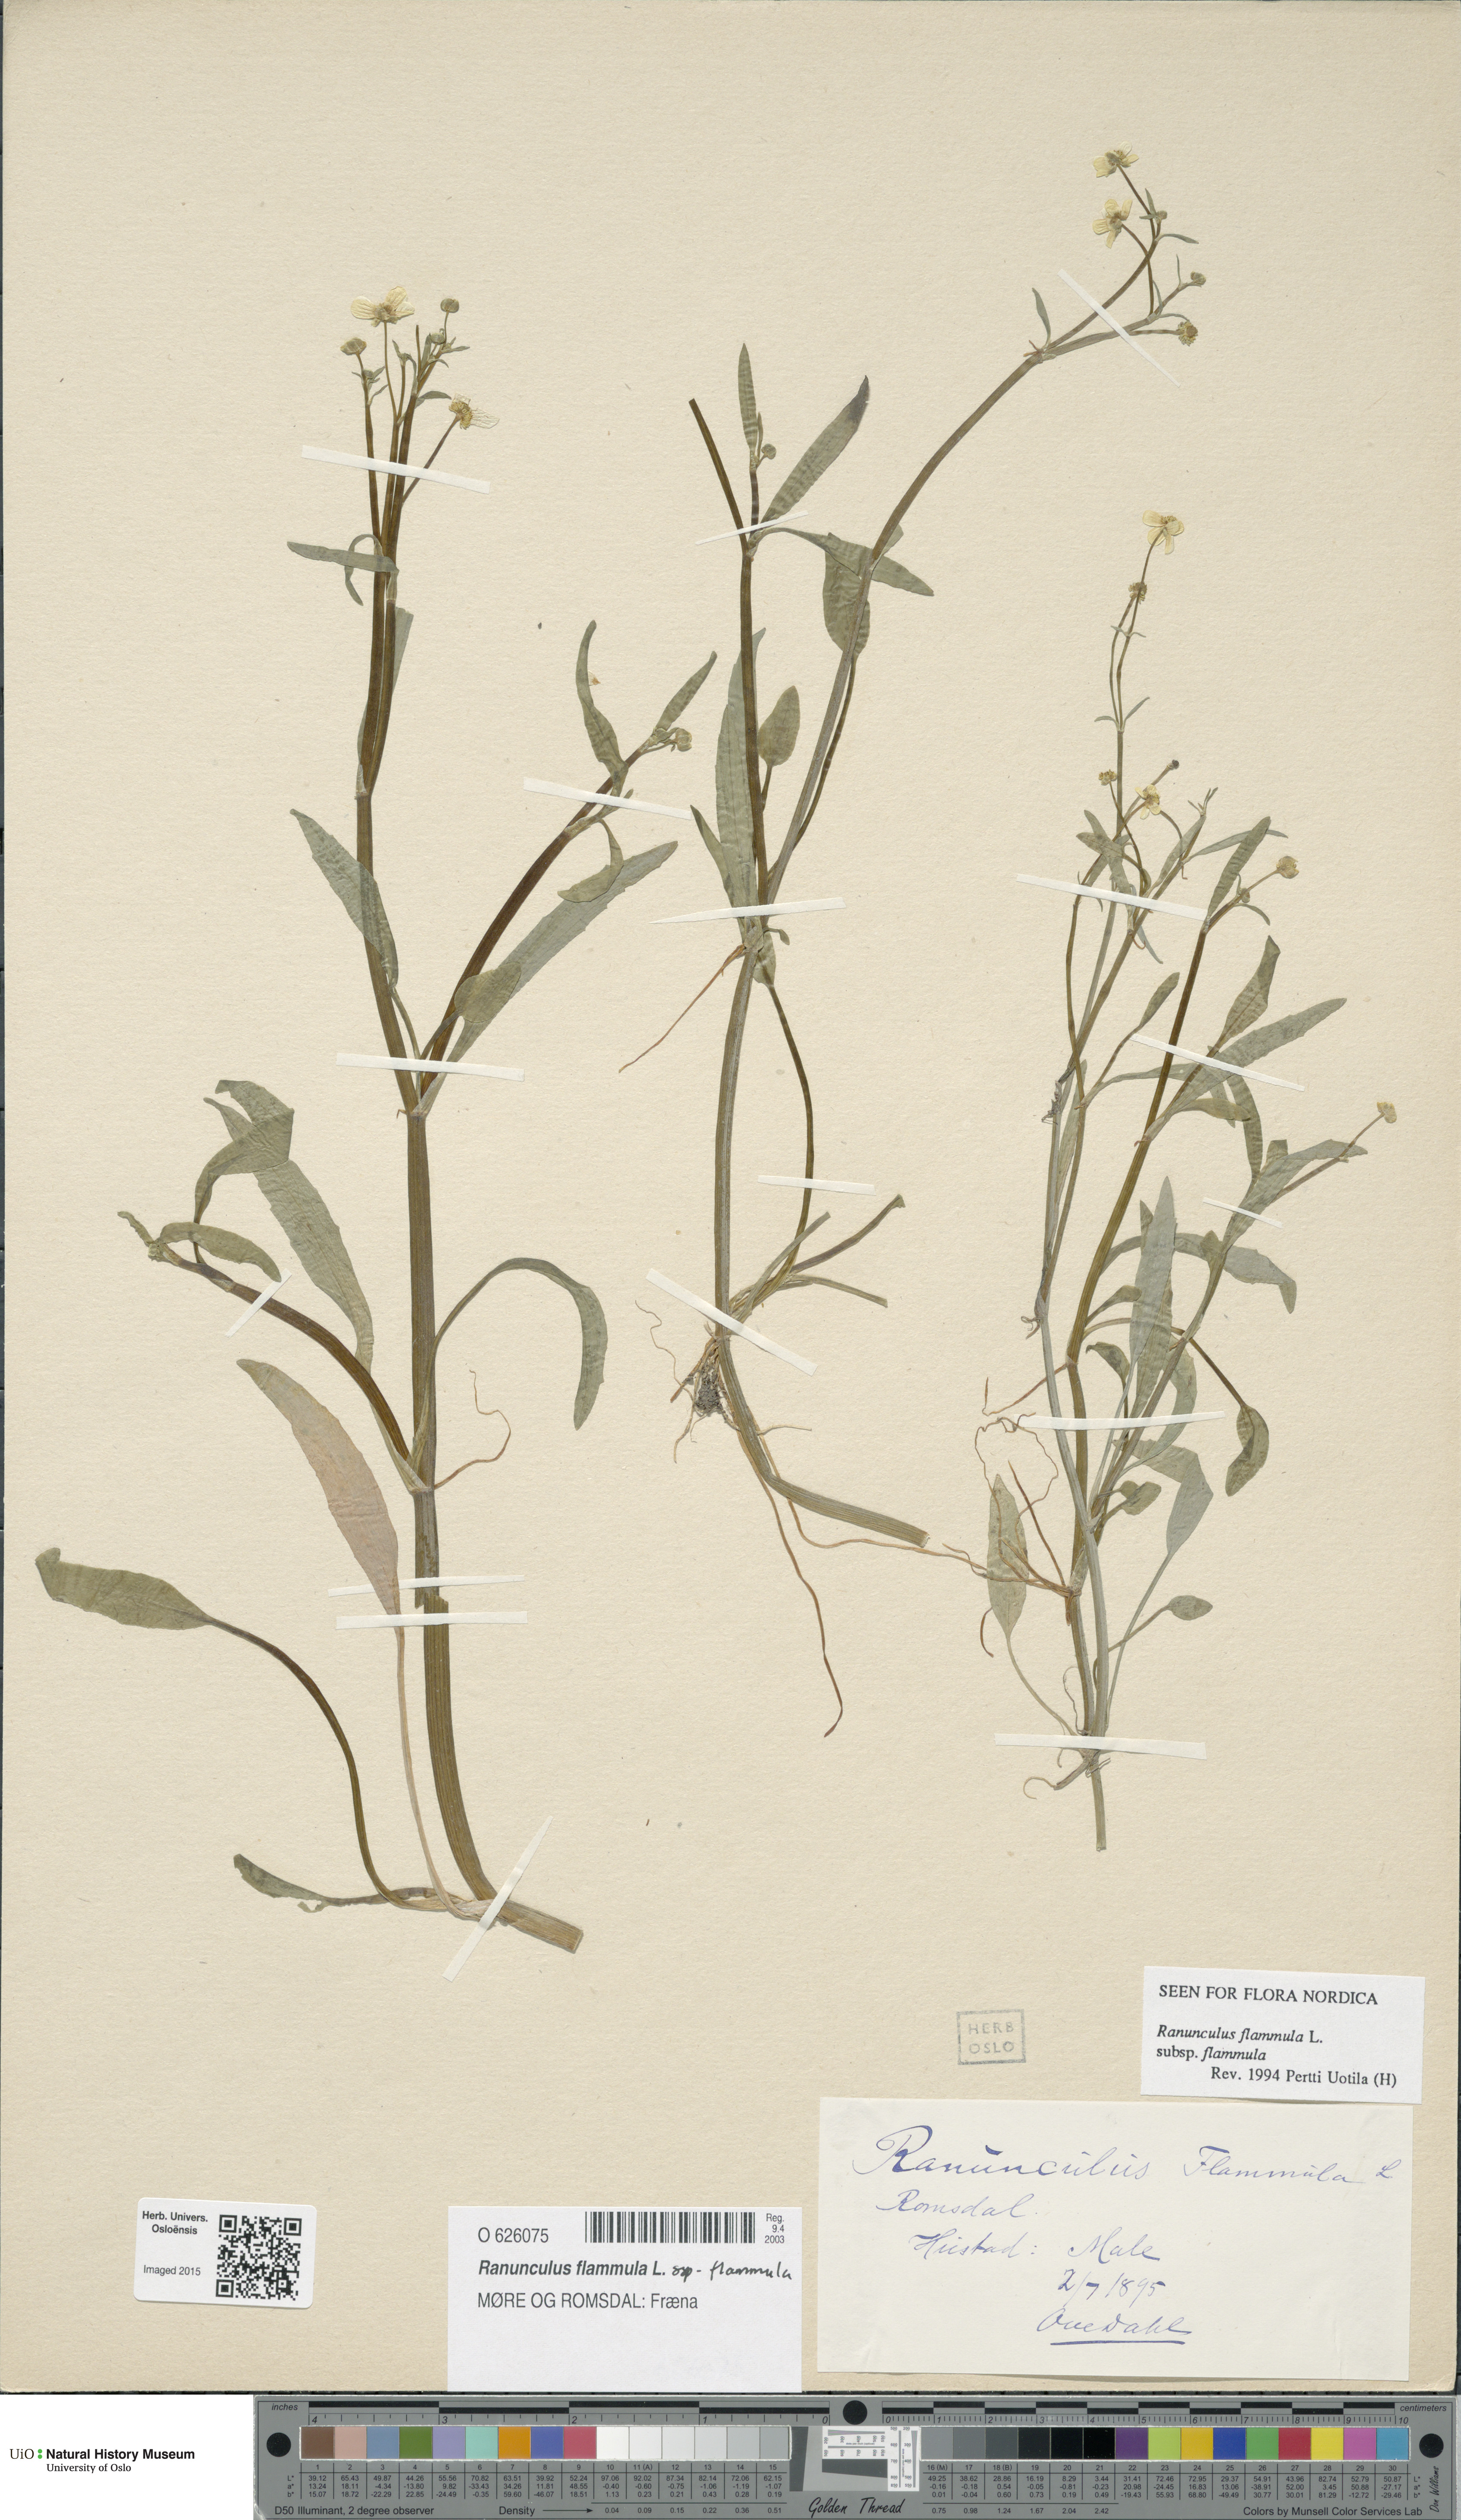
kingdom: Plantae
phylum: Tracheophyta
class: Magnoliopsida
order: Ranunculales
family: Ranunculaceae
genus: Ranunculus
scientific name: Ranunculus flammula
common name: Lesser spearwort
